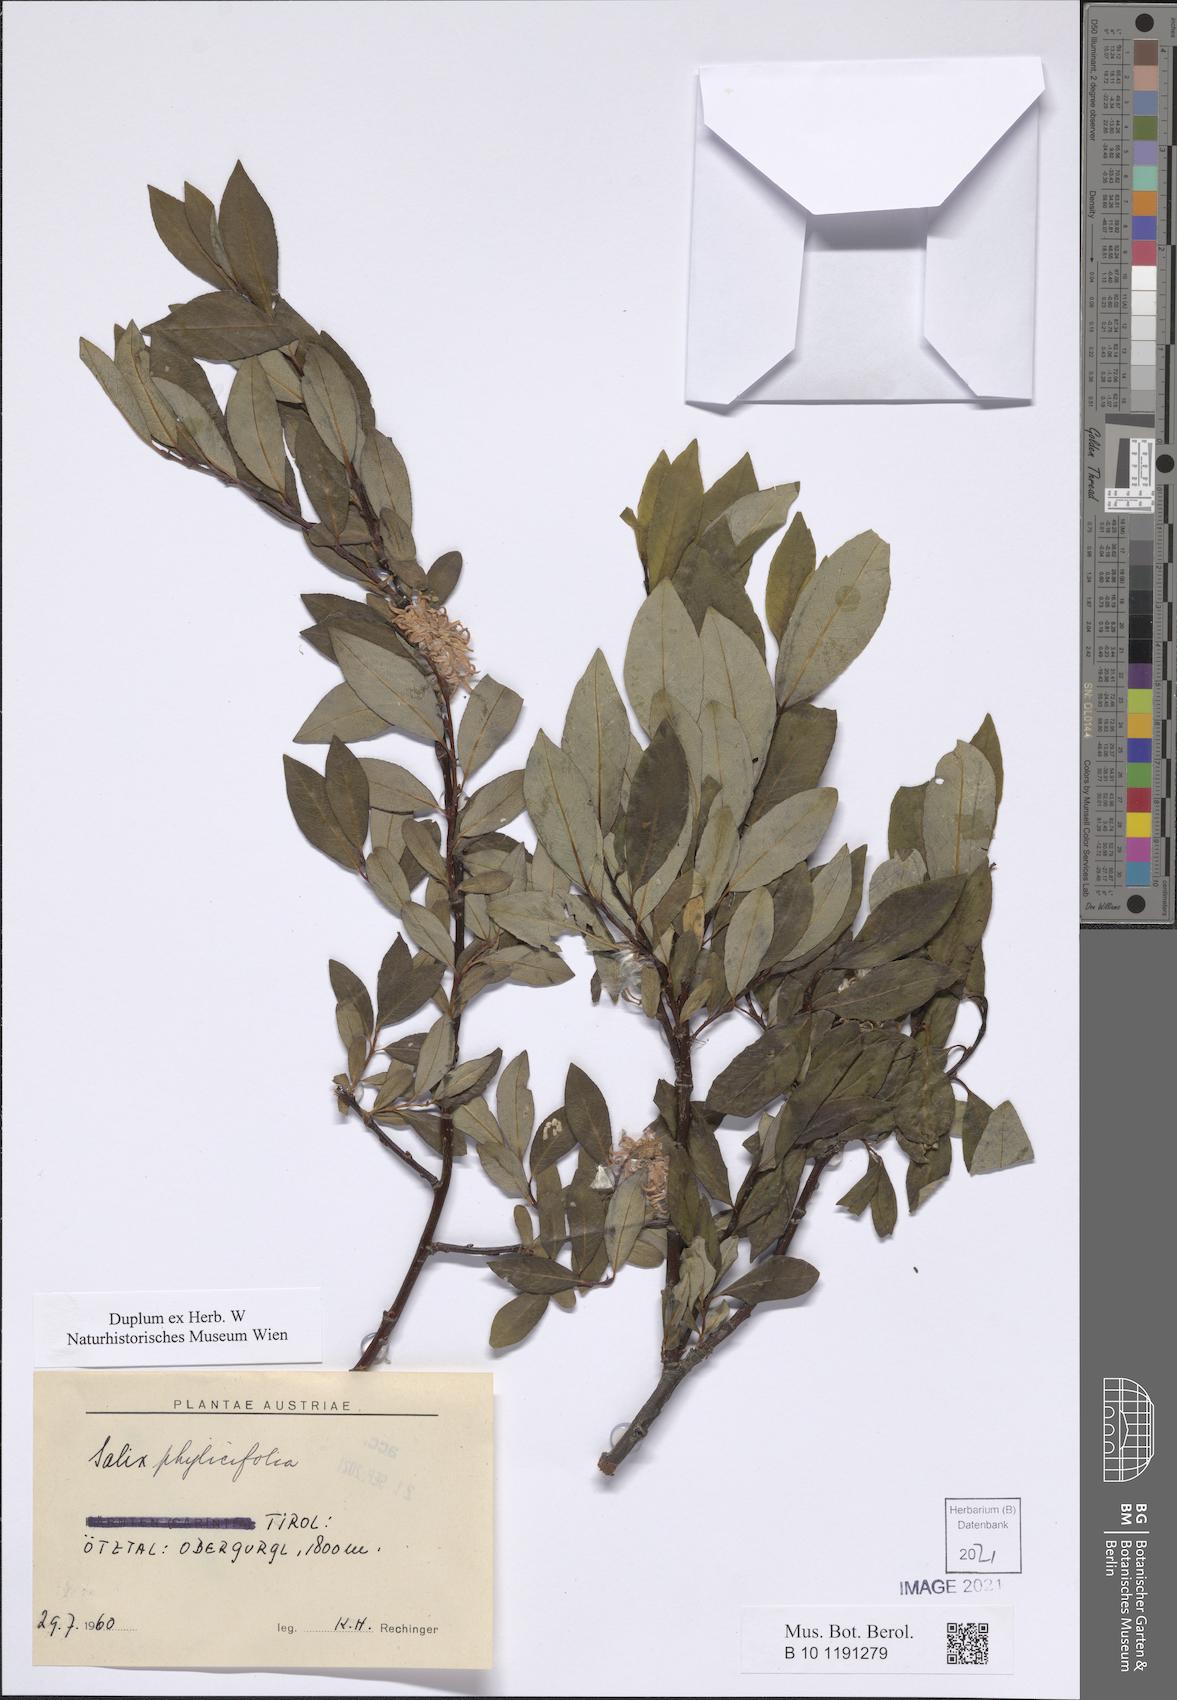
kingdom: Plantae
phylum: Tracheophyta
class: Magnoliopsida
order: Malpighiales
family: Salicaceae
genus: Salix
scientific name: Salix phylicifolia
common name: Tea-leaved willow
